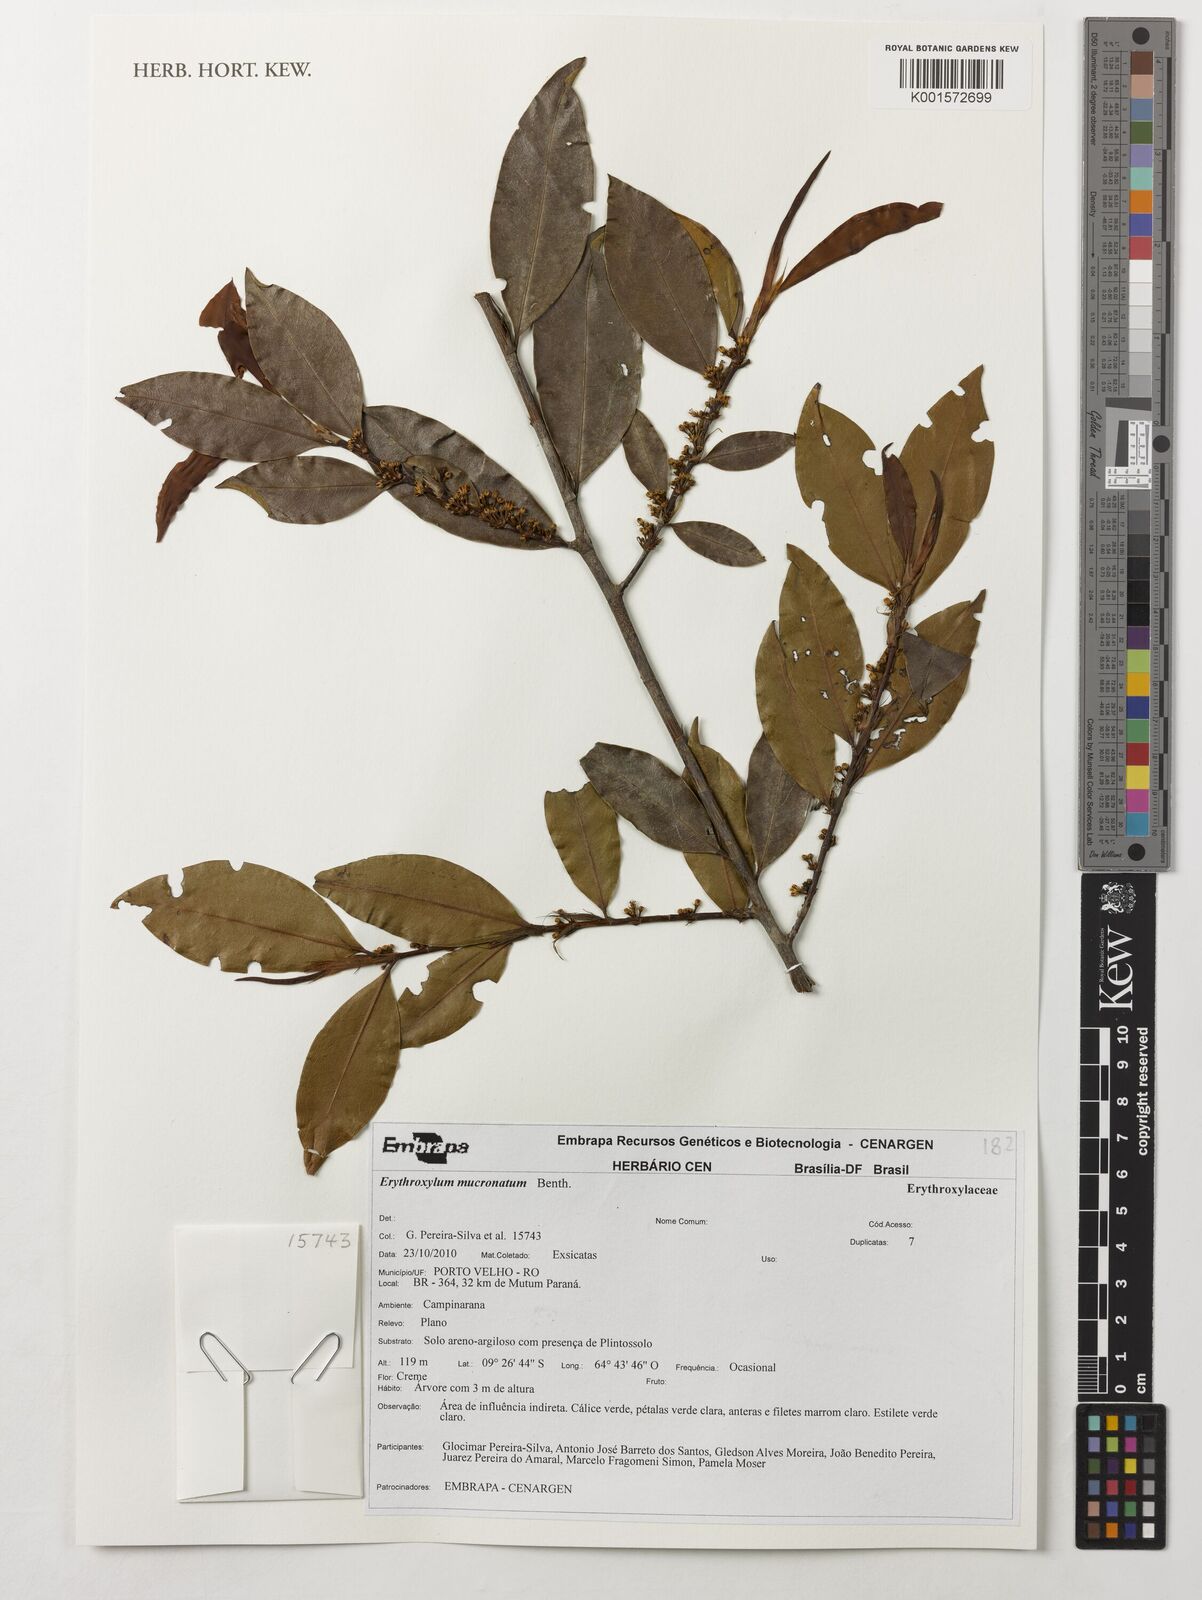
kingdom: Plantae
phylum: Tracheophyta
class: Magnoliopsida
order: Malpighiales
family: Erythroxylaceae
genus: Erythroxylum
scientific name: Erythroxylum mucronatum
